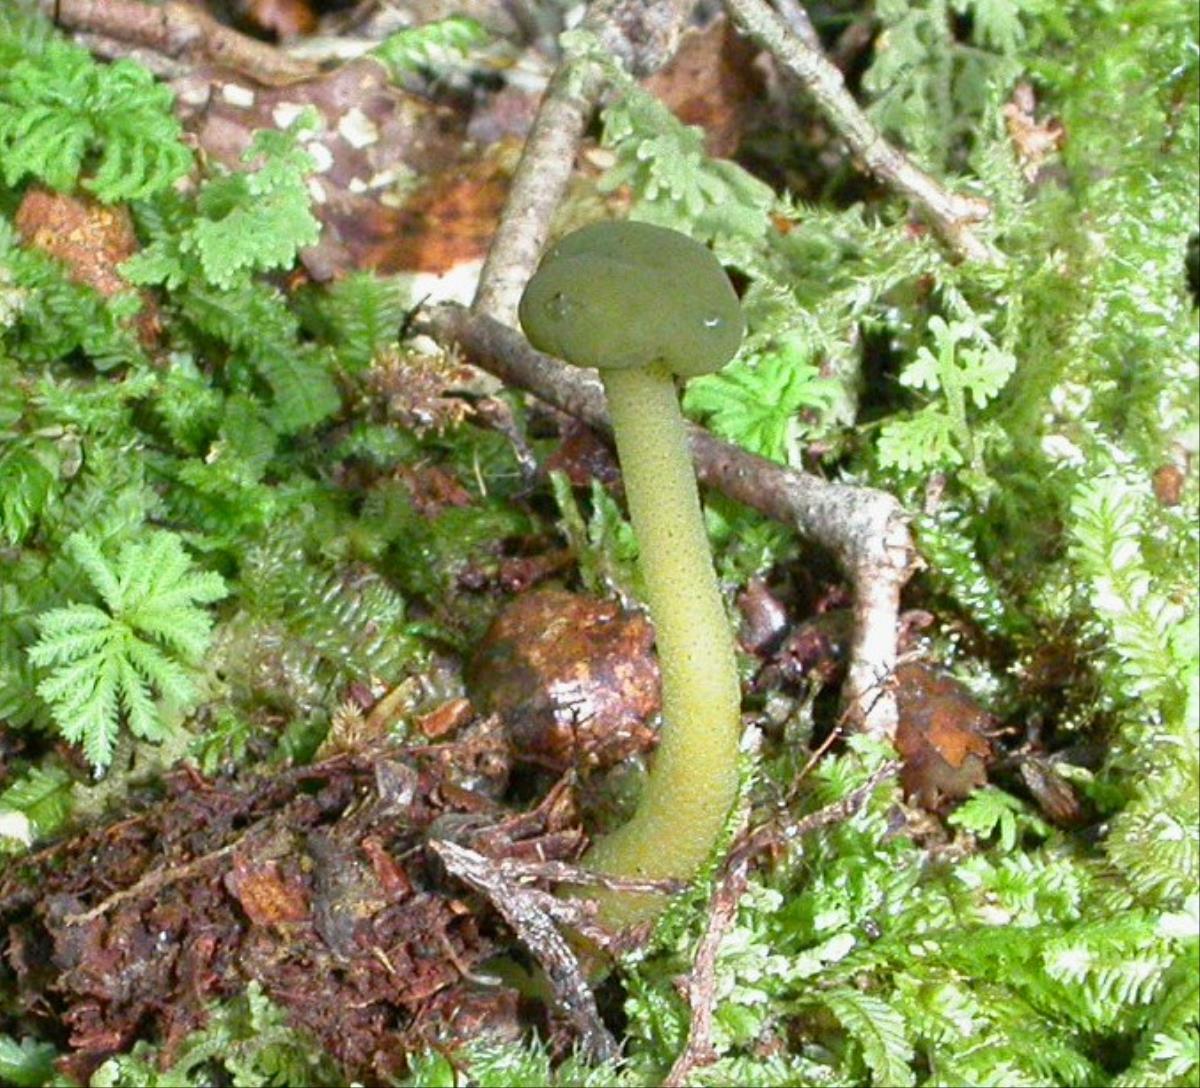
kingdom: Fungi
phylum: Ascomycota
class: Leotiomycetes
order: Leotiales
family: Leotiaceae
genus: Leotia
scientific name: Leotia lubrica
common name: Jellybaby
